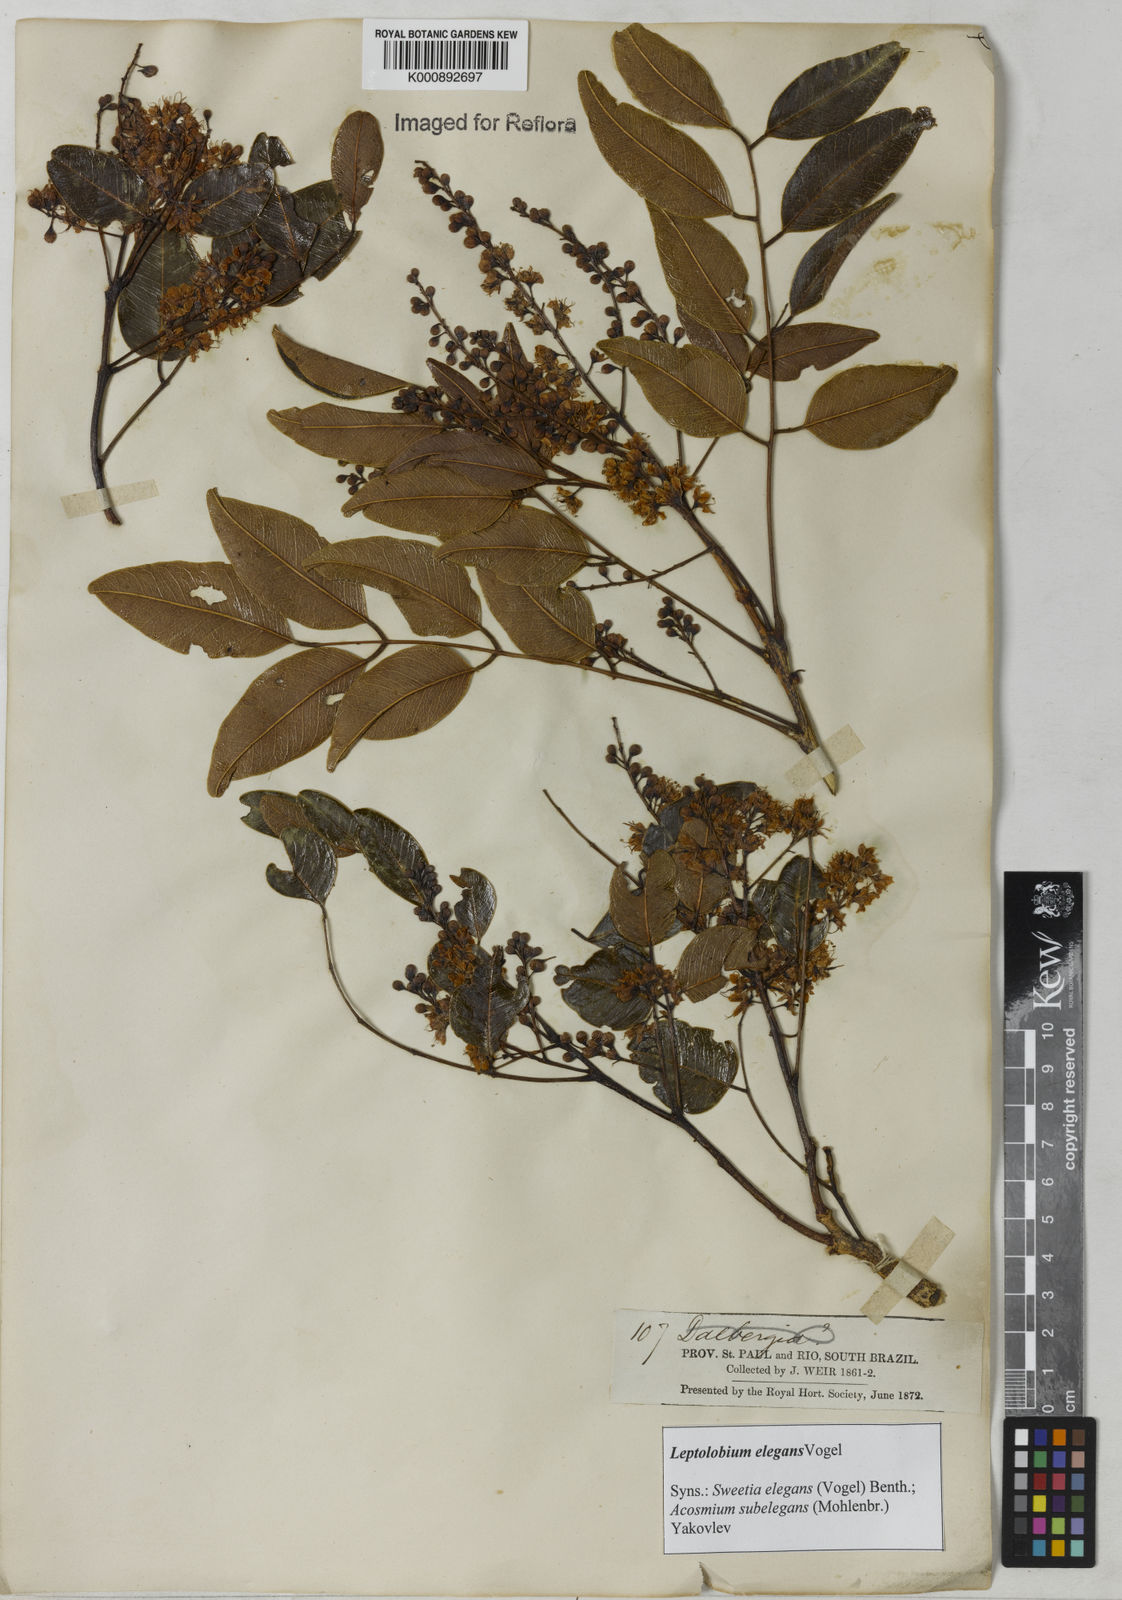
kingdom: Plantae
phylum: Tracheophyta
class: Magnoliopsida
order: Fabales
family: Fabaceae
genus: Leptolobium
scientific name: Leptolobium elegans
